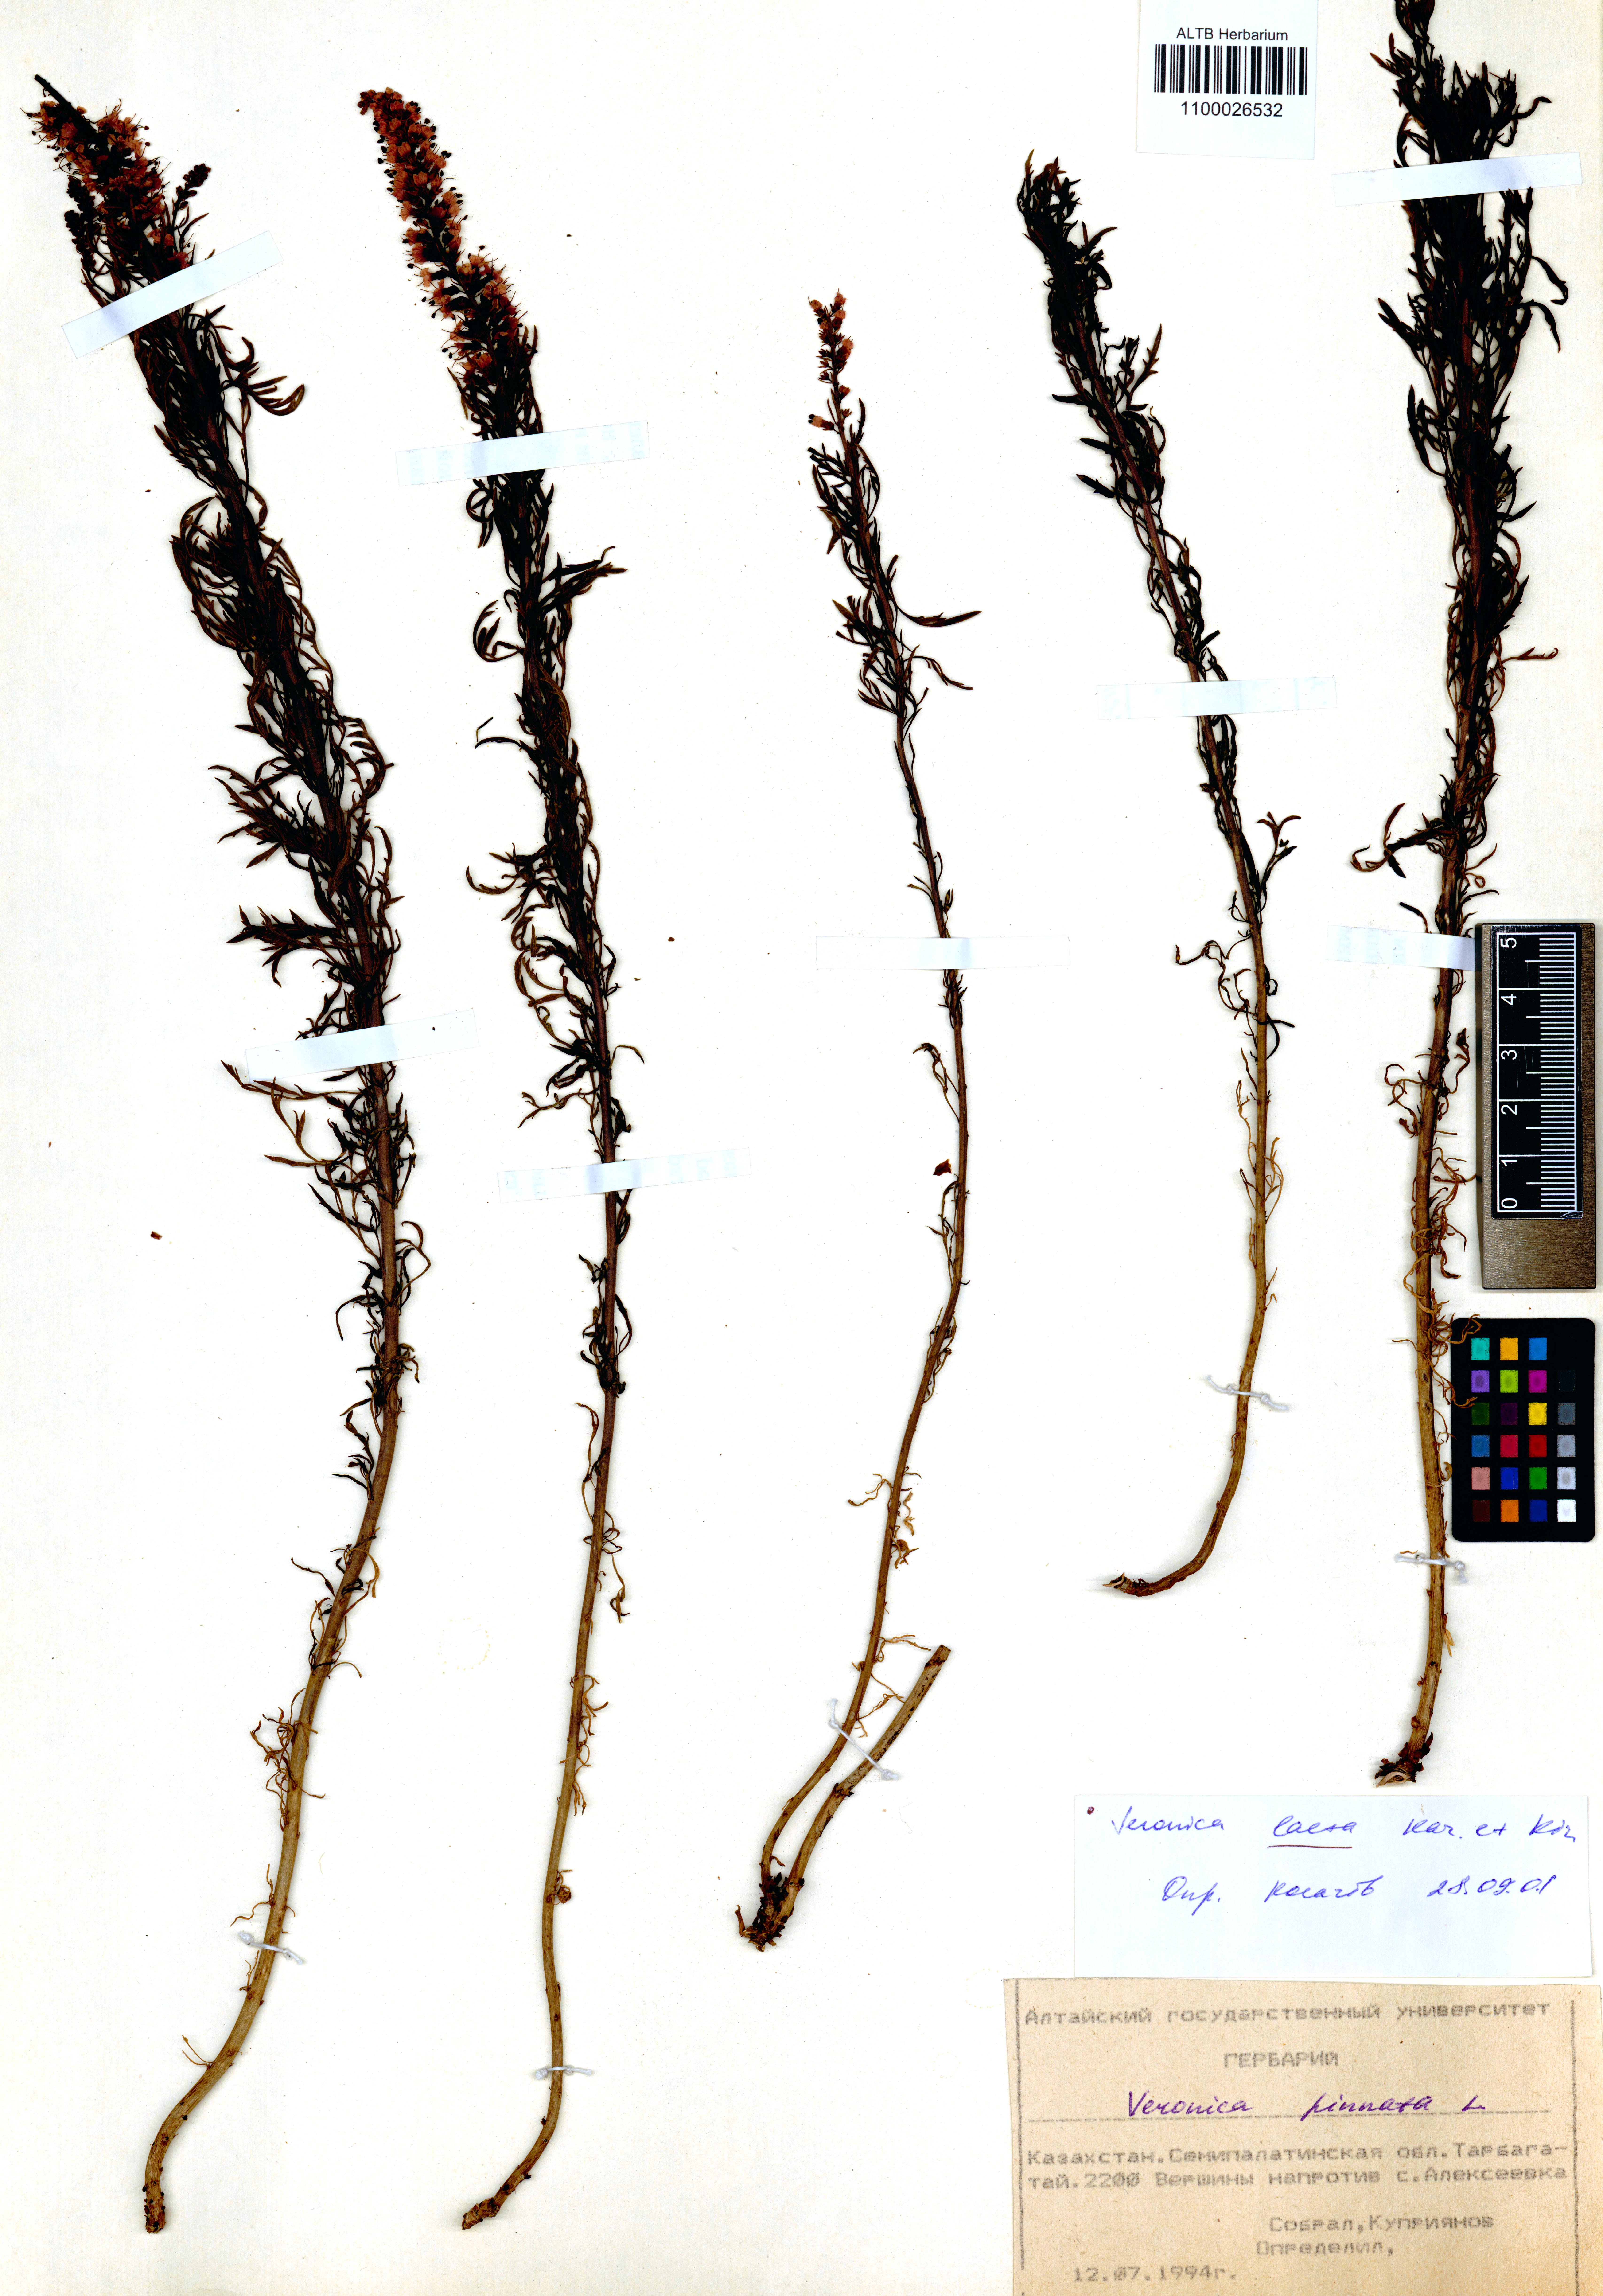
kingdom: Plantae
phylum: Tracheophyta
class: Magnoliopsida
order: Lamiales
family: Plantaginaceae
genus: Veronica
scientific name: Veronica laeta
